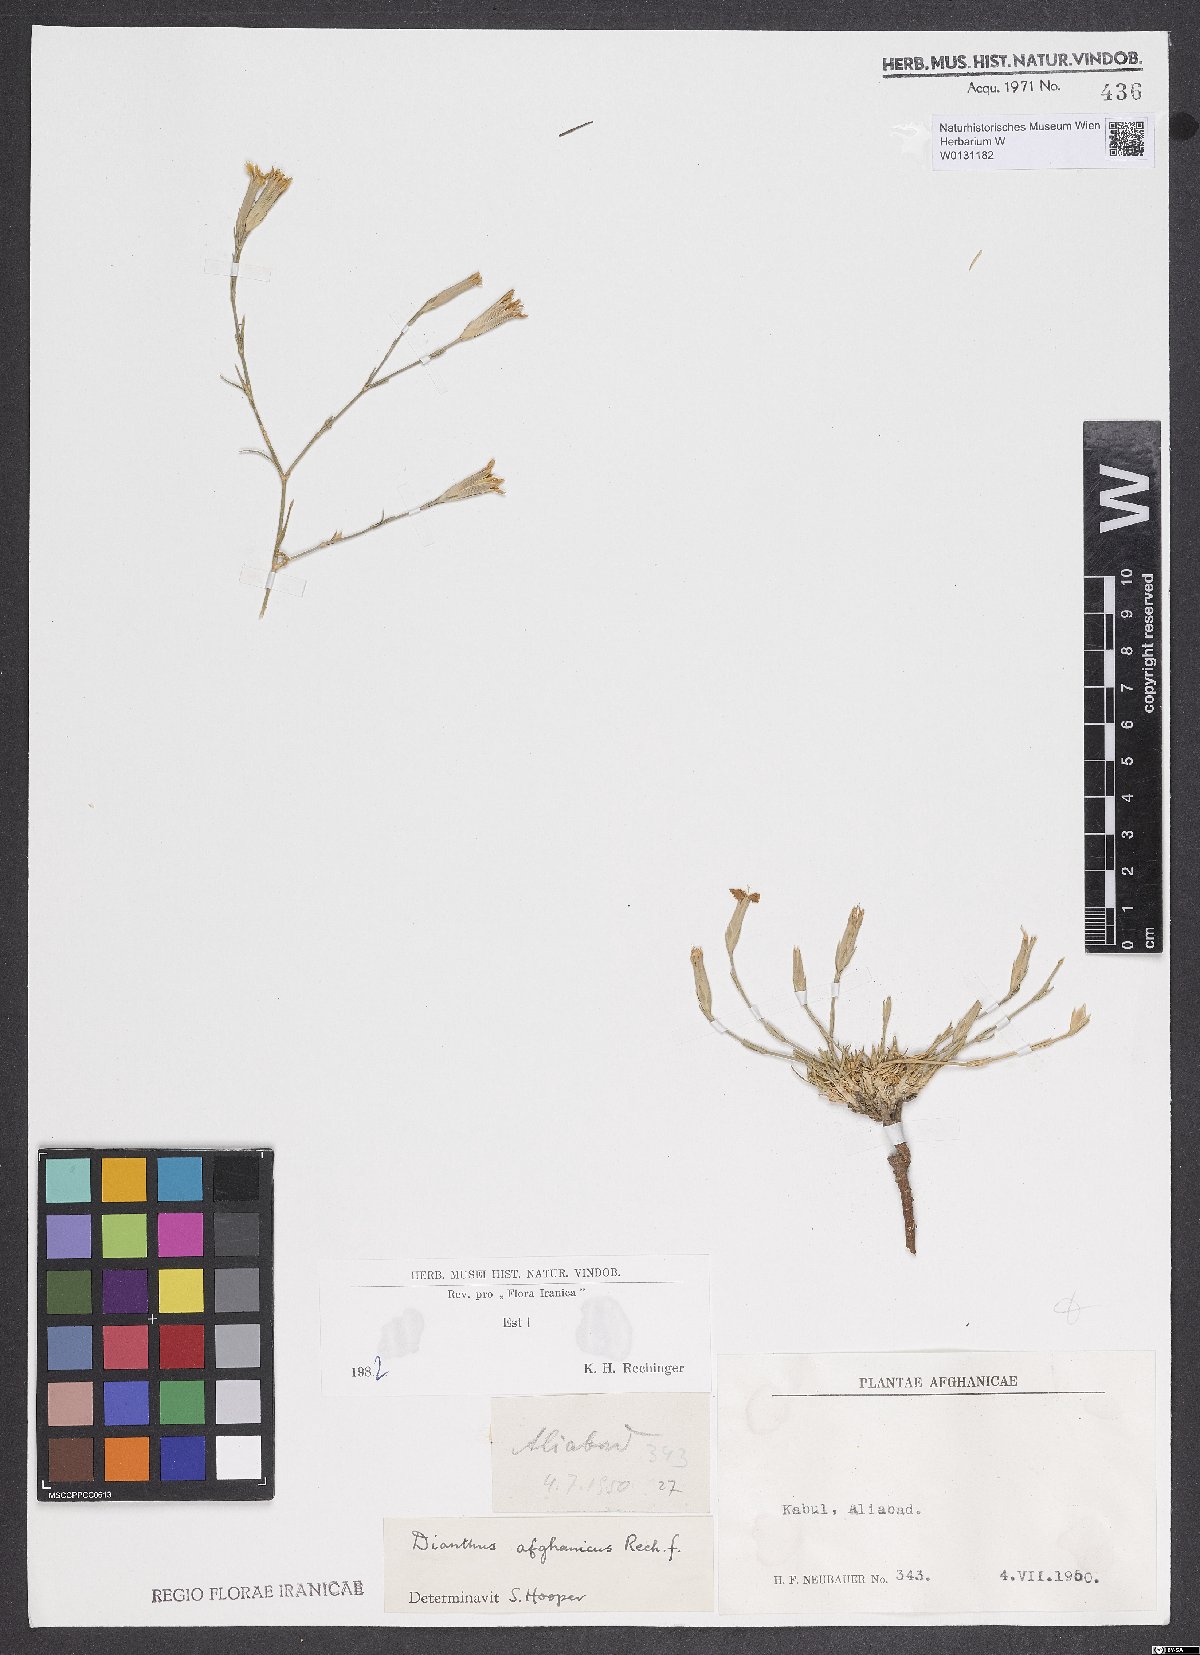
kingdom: Plantae
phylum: Tracheophyta
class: Magnoliopsida
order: Caryophyllales
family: Caryophyllaceae
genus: Dianthus
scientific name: Dianthus afghanicus
